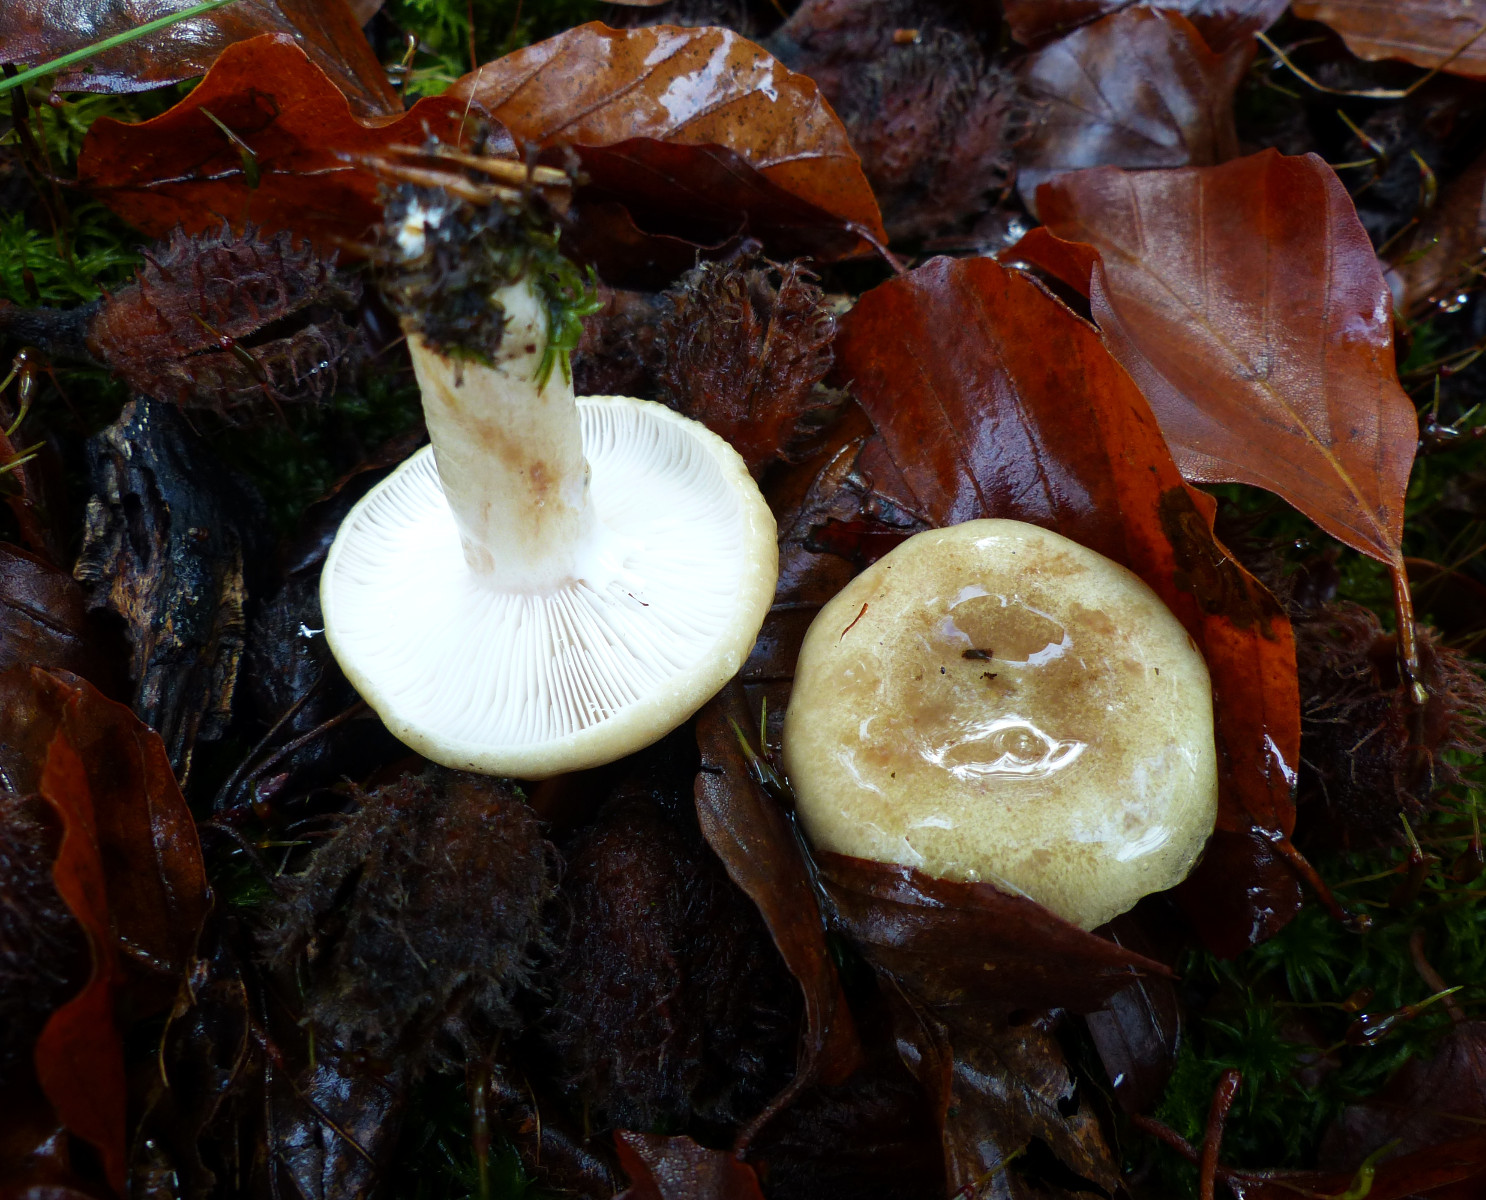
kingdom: Fungi
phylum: Basidiomycota
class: Agaricomycetes
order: Russulales
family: Russulaceae
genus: Lactarius
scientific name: Lactarius
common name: mælkehat
